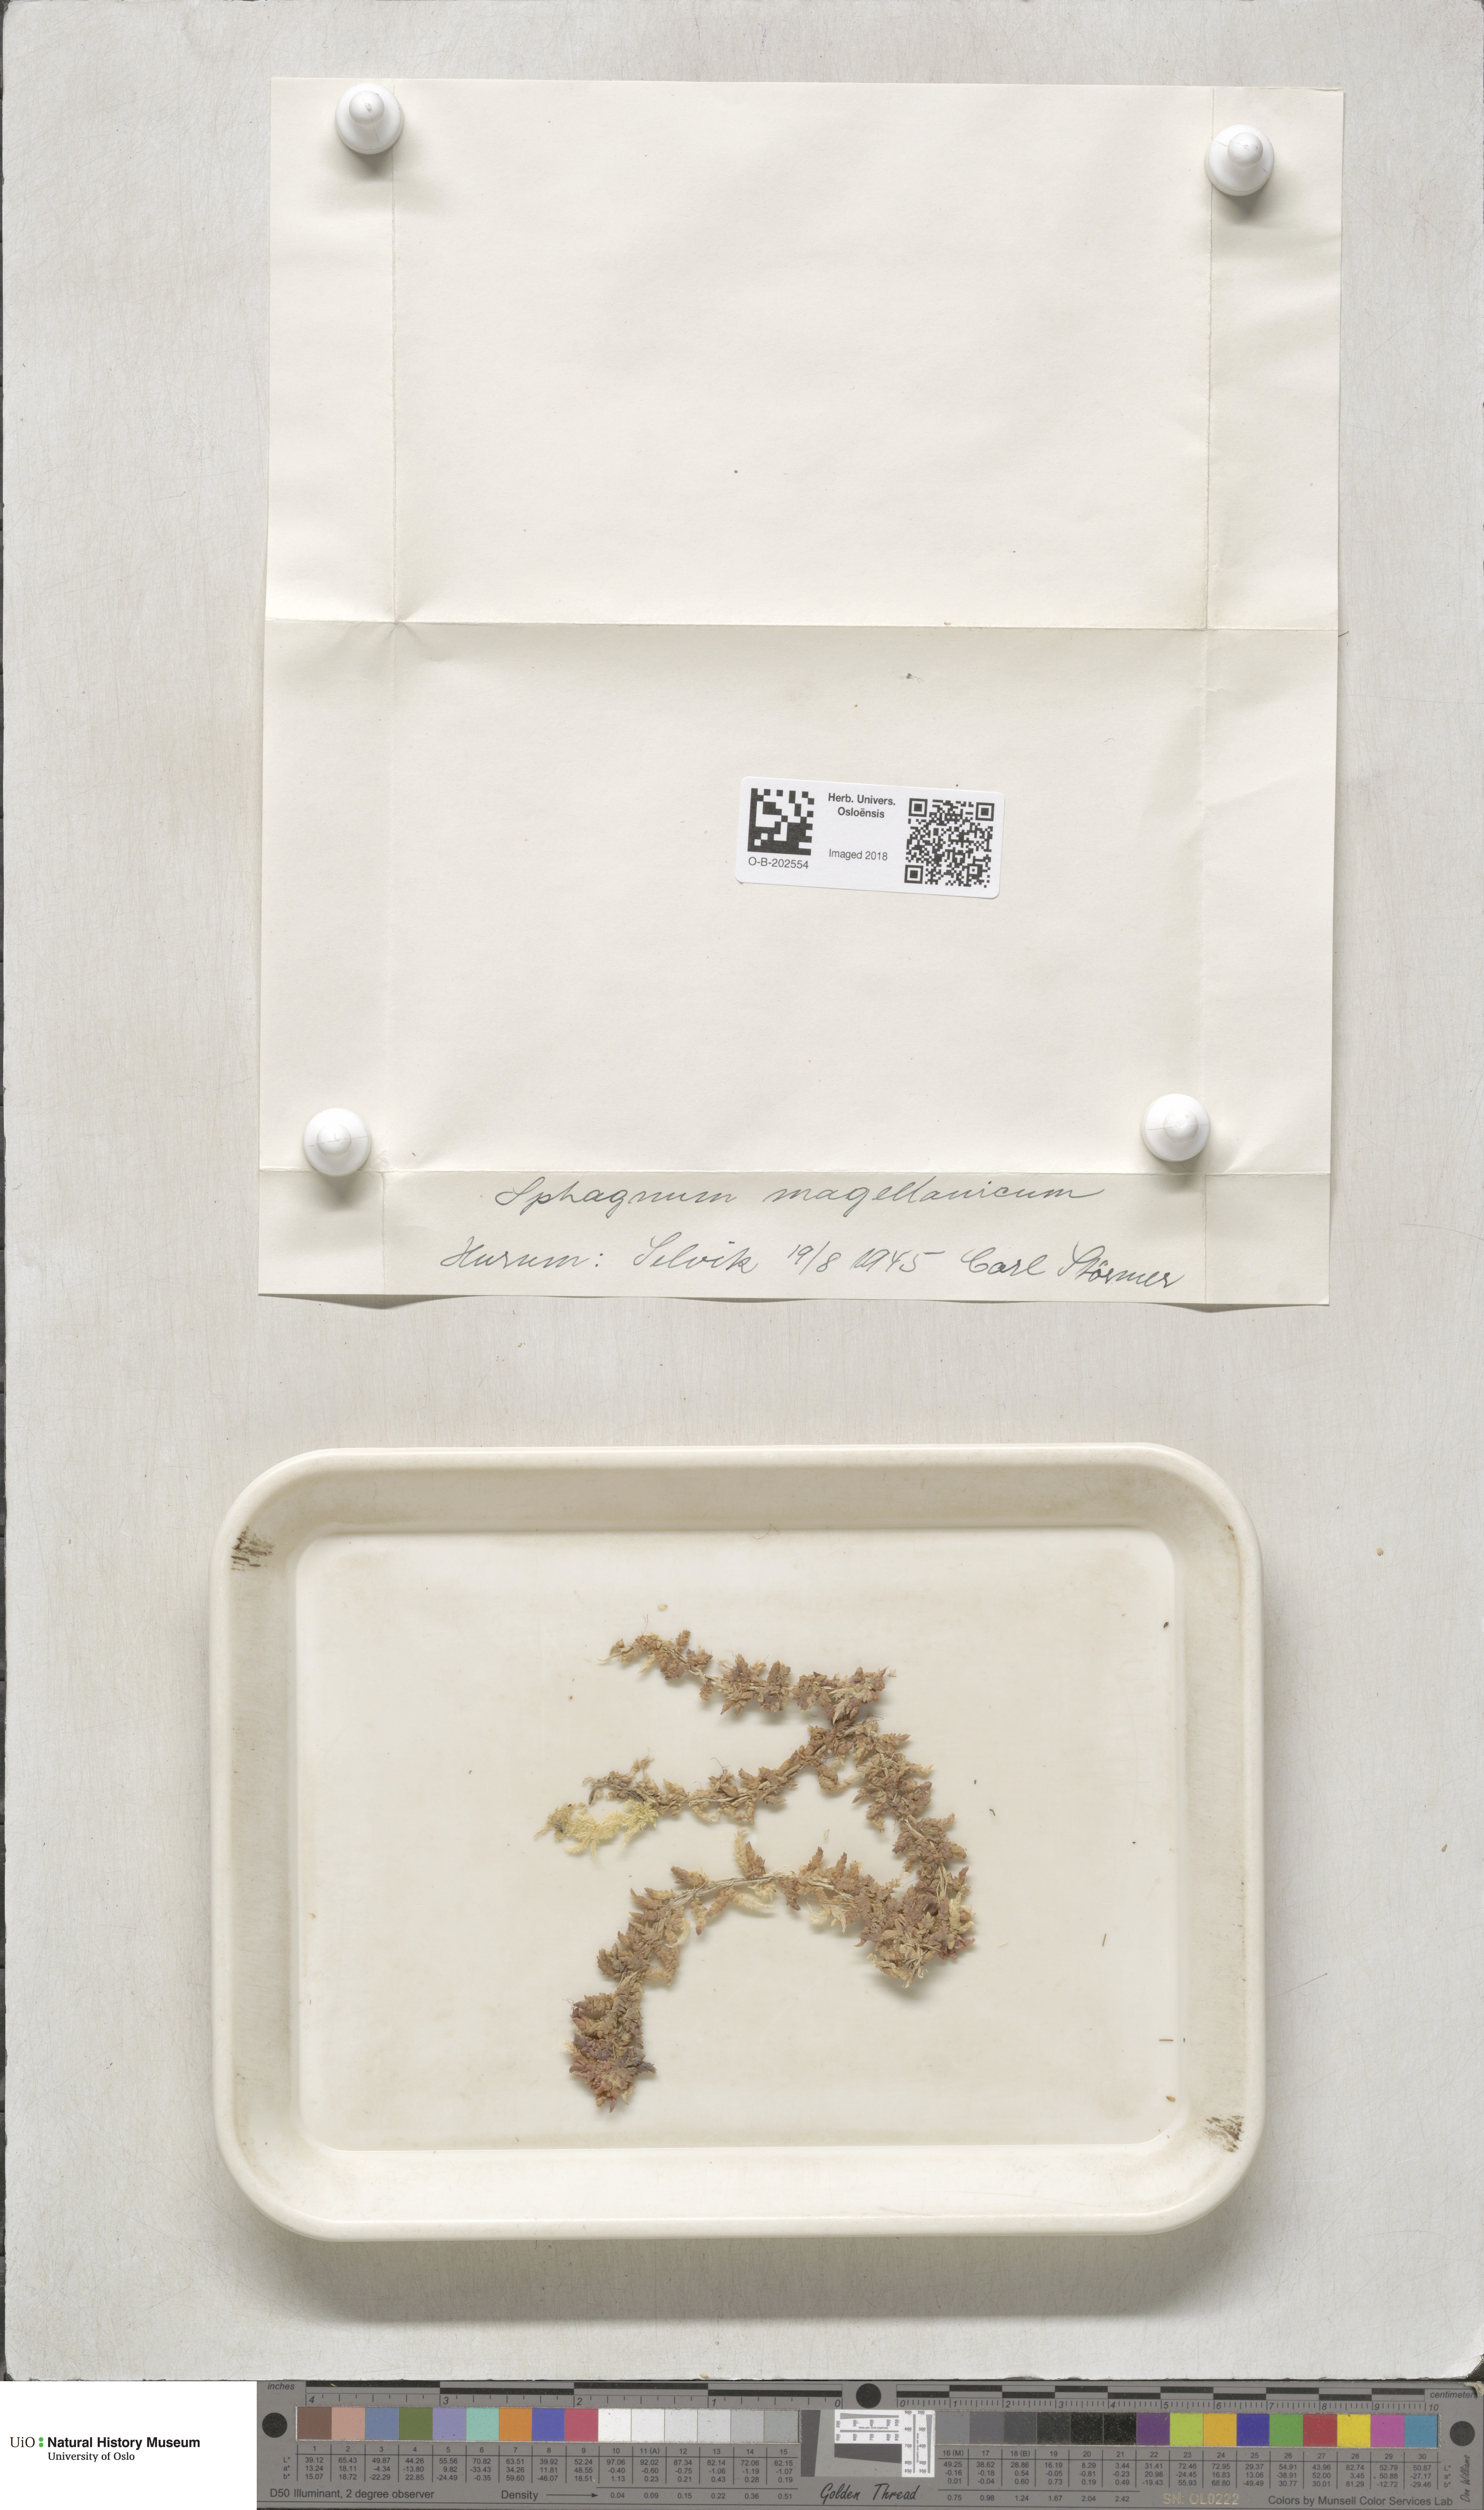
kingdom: Plantae
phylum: Bryophyta
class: Sphagnopsida
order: Sphagnales
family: Sphagnaceae
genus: Sphagnum
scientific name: Sphagnum magellanicum
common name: Magellan's peat moss
